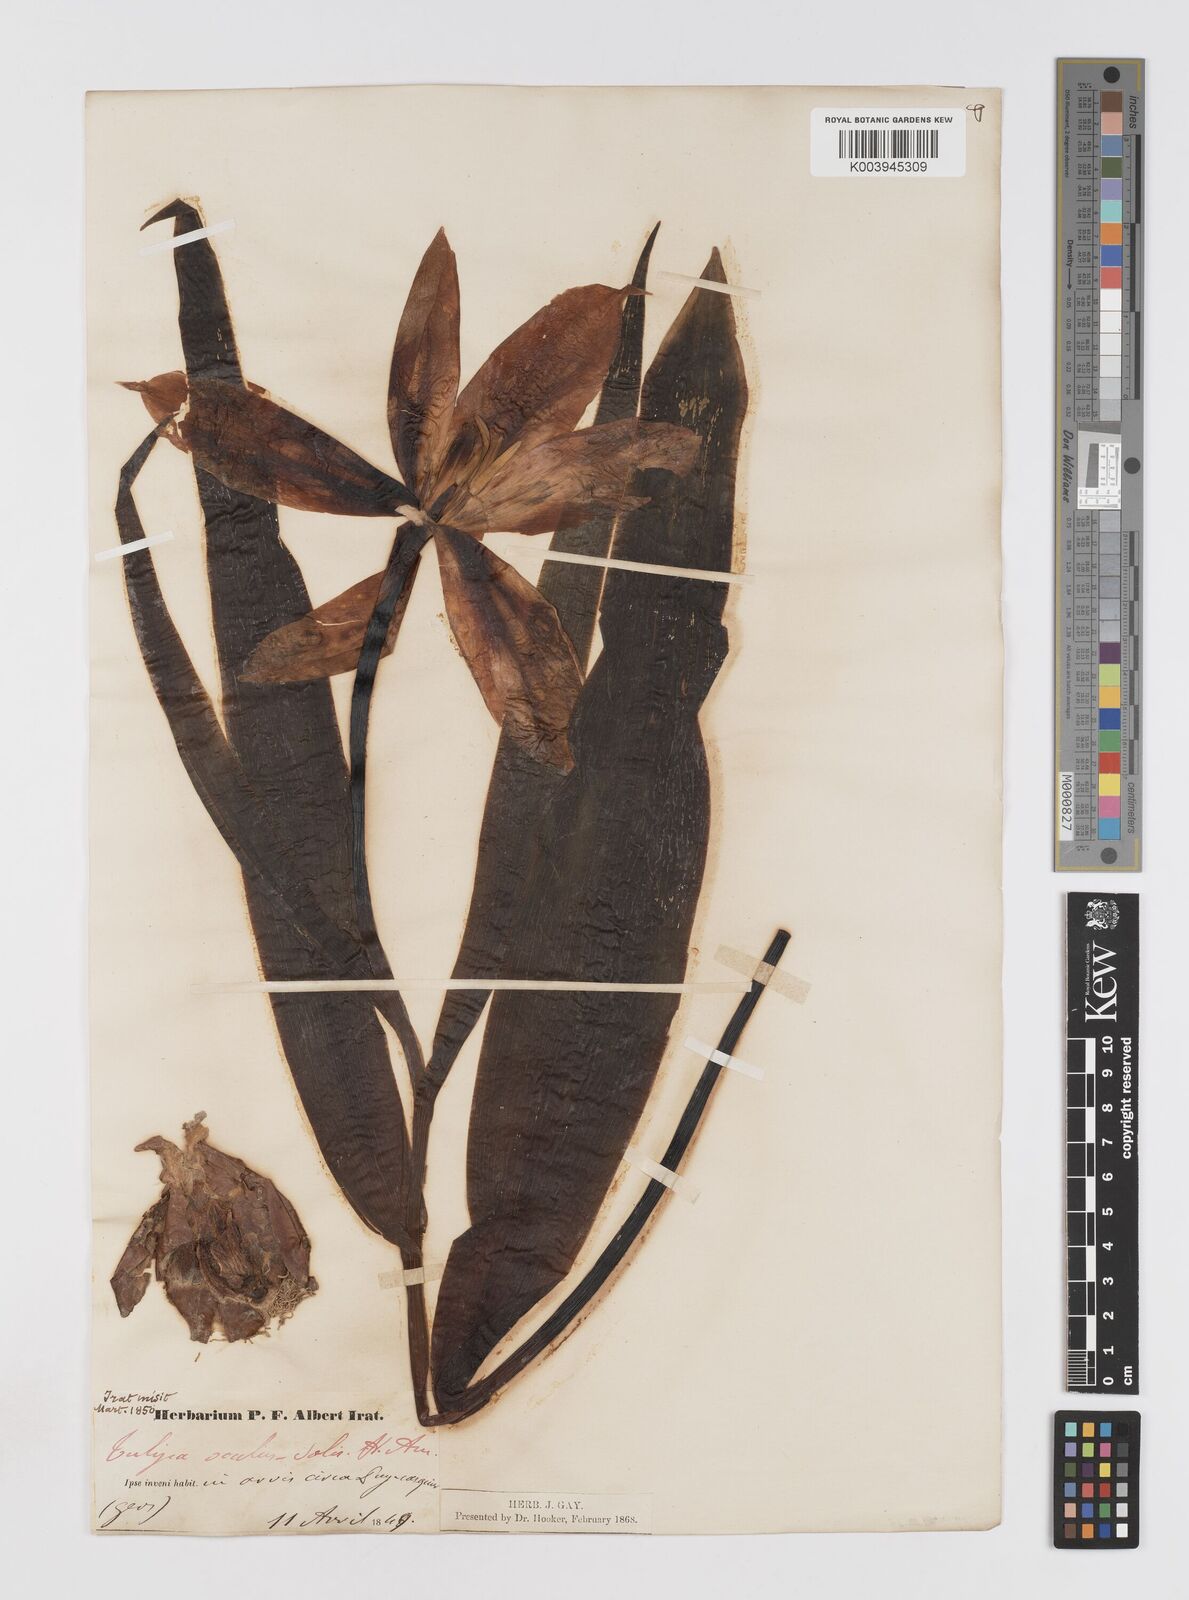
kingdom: Plantae
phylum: Tracheophyta
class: Liliopsida
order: Liliales
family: Liliaceae
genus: Tulipa
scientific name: Tulipa agenensis
